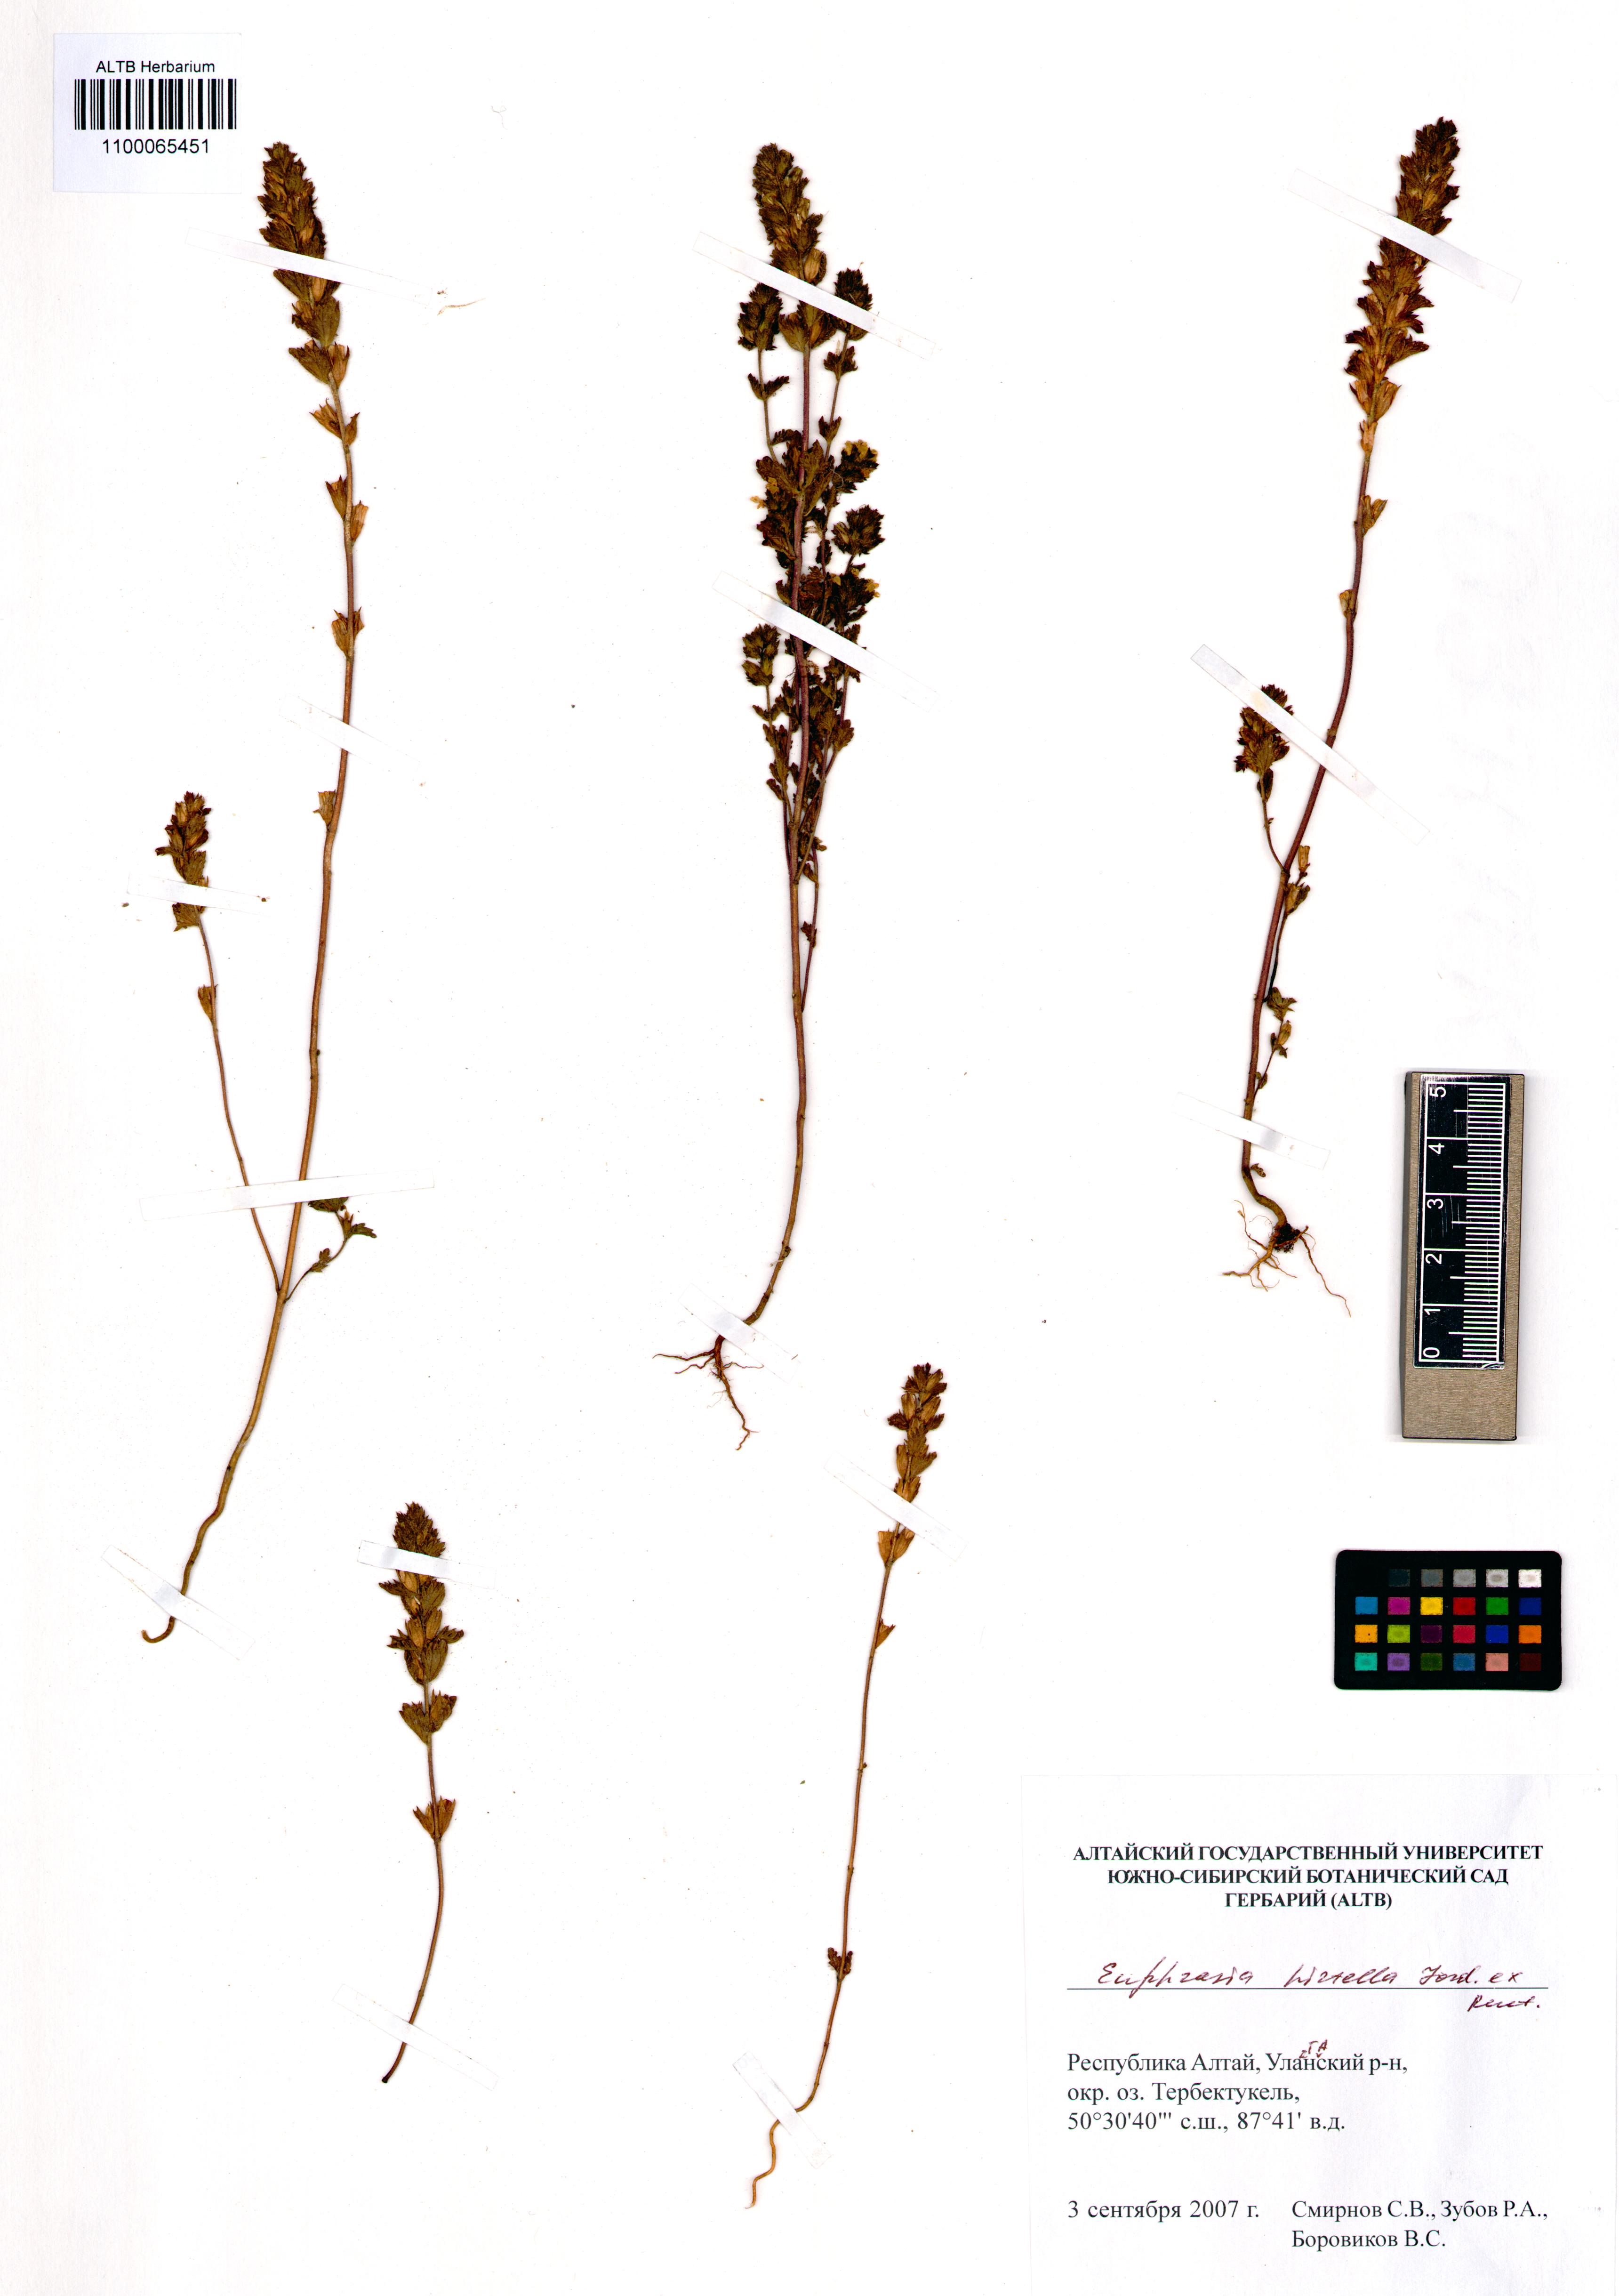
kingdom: Plantae
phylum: Tracheophyta
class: Magnoliopsida
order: Lamiales
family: Orobanchaceae
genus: Euphrasia
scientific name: Euphrasia hirtella
